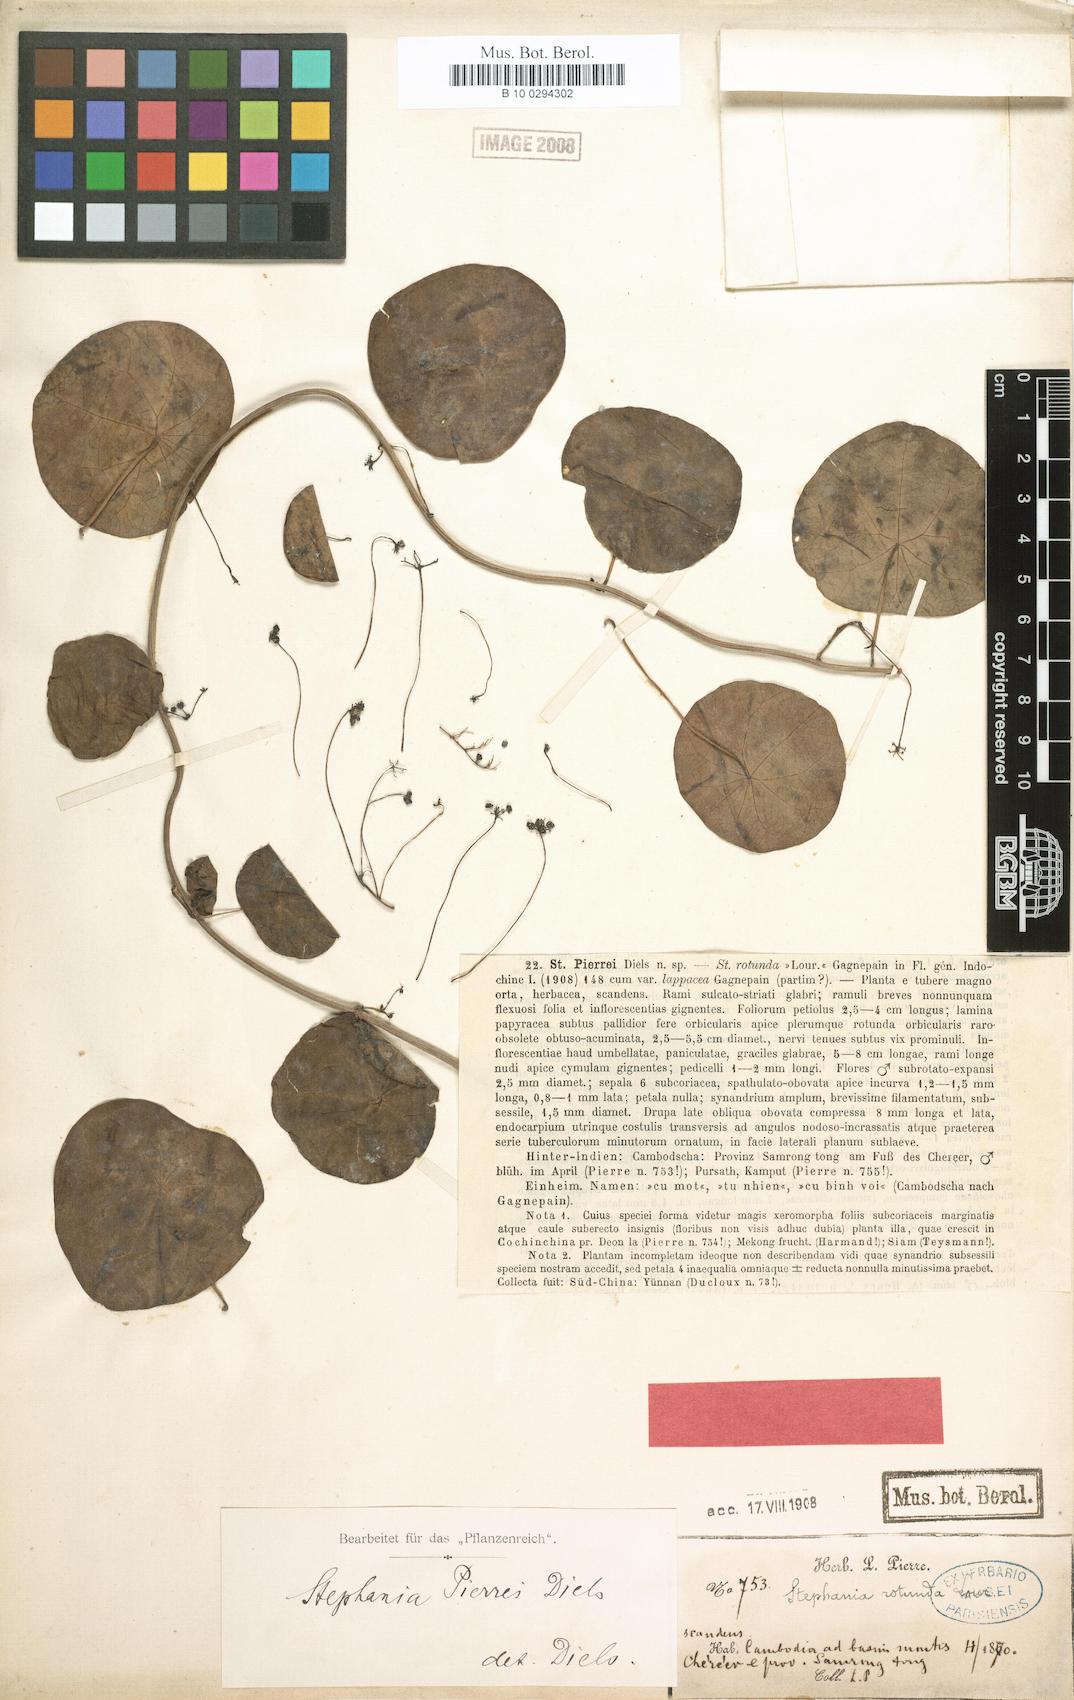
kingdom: Plantae
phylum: Tracheophyta
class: Magnoliopsida
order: Ranunculales
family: Menispermaceae
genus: Stephania
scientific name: Stephania pierrei
